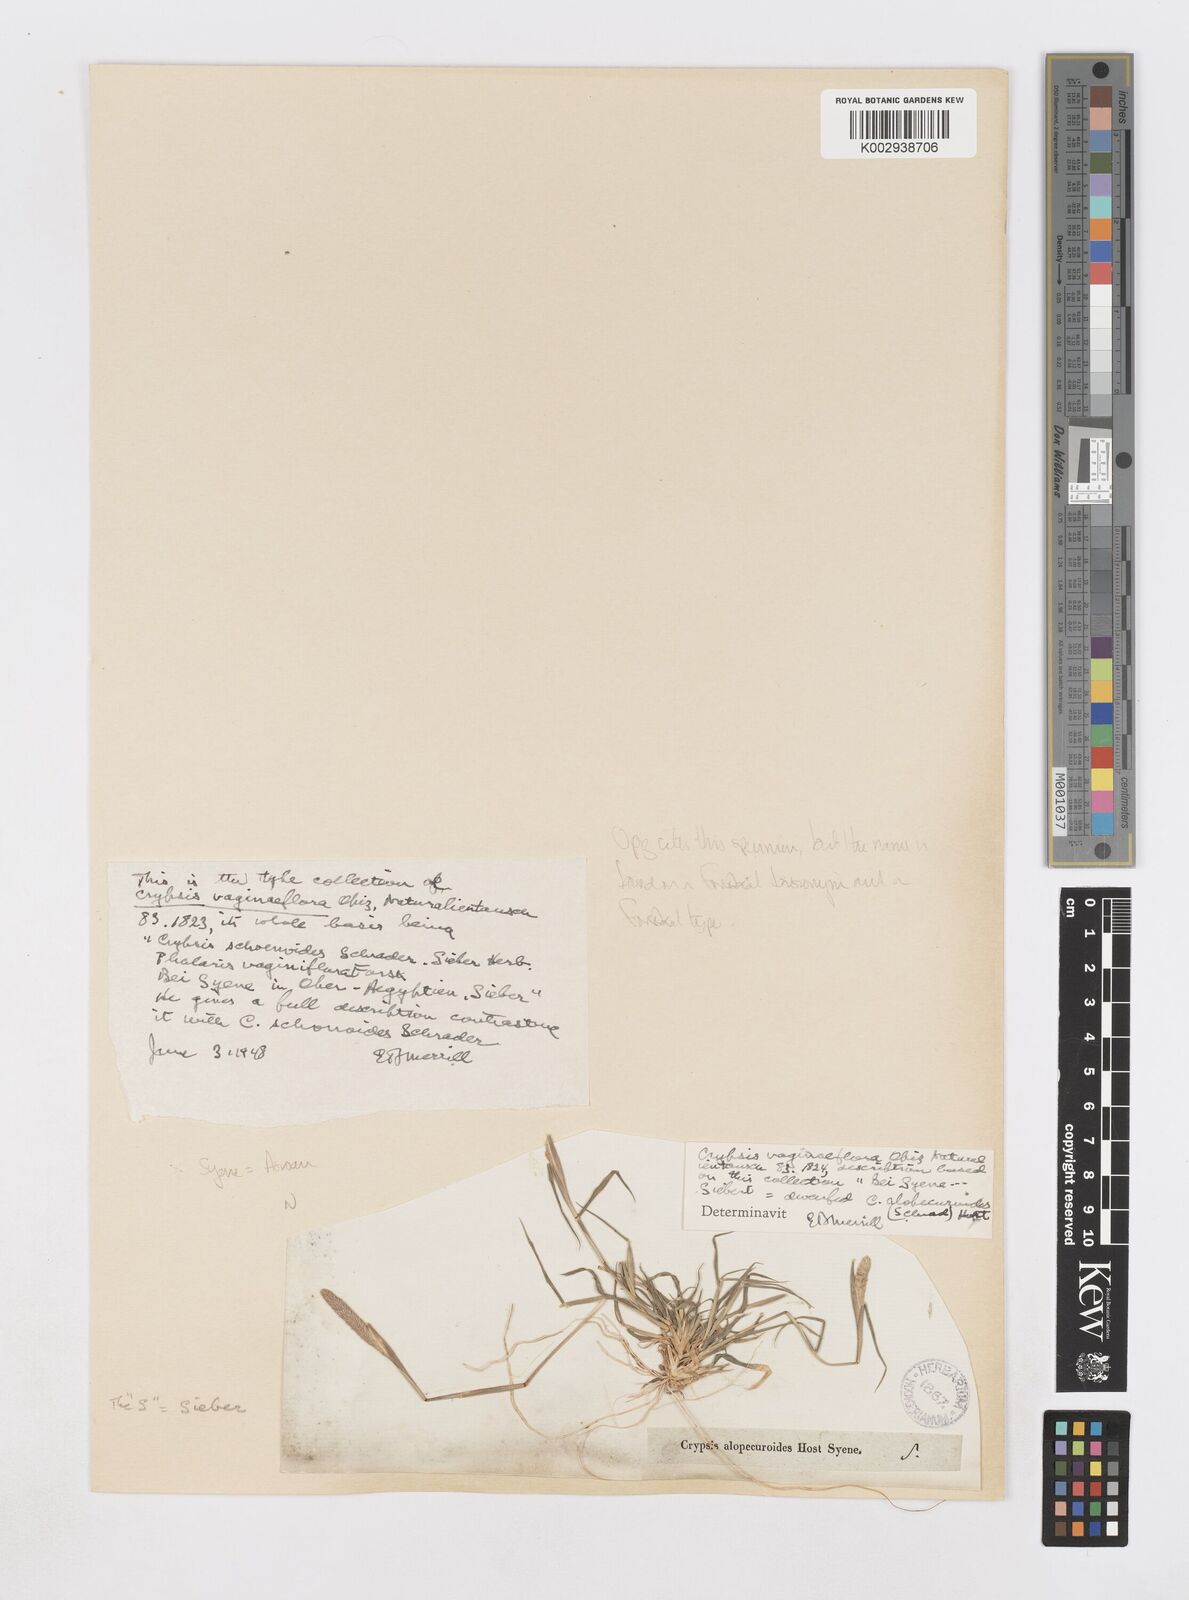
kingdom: Plantae
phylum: Tracheophyta
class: Liliopsida
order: Poales
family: Poaceae
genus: Sporobolus
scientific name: Sporobolus alopecuroides
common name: Foxtail pricklegrass
